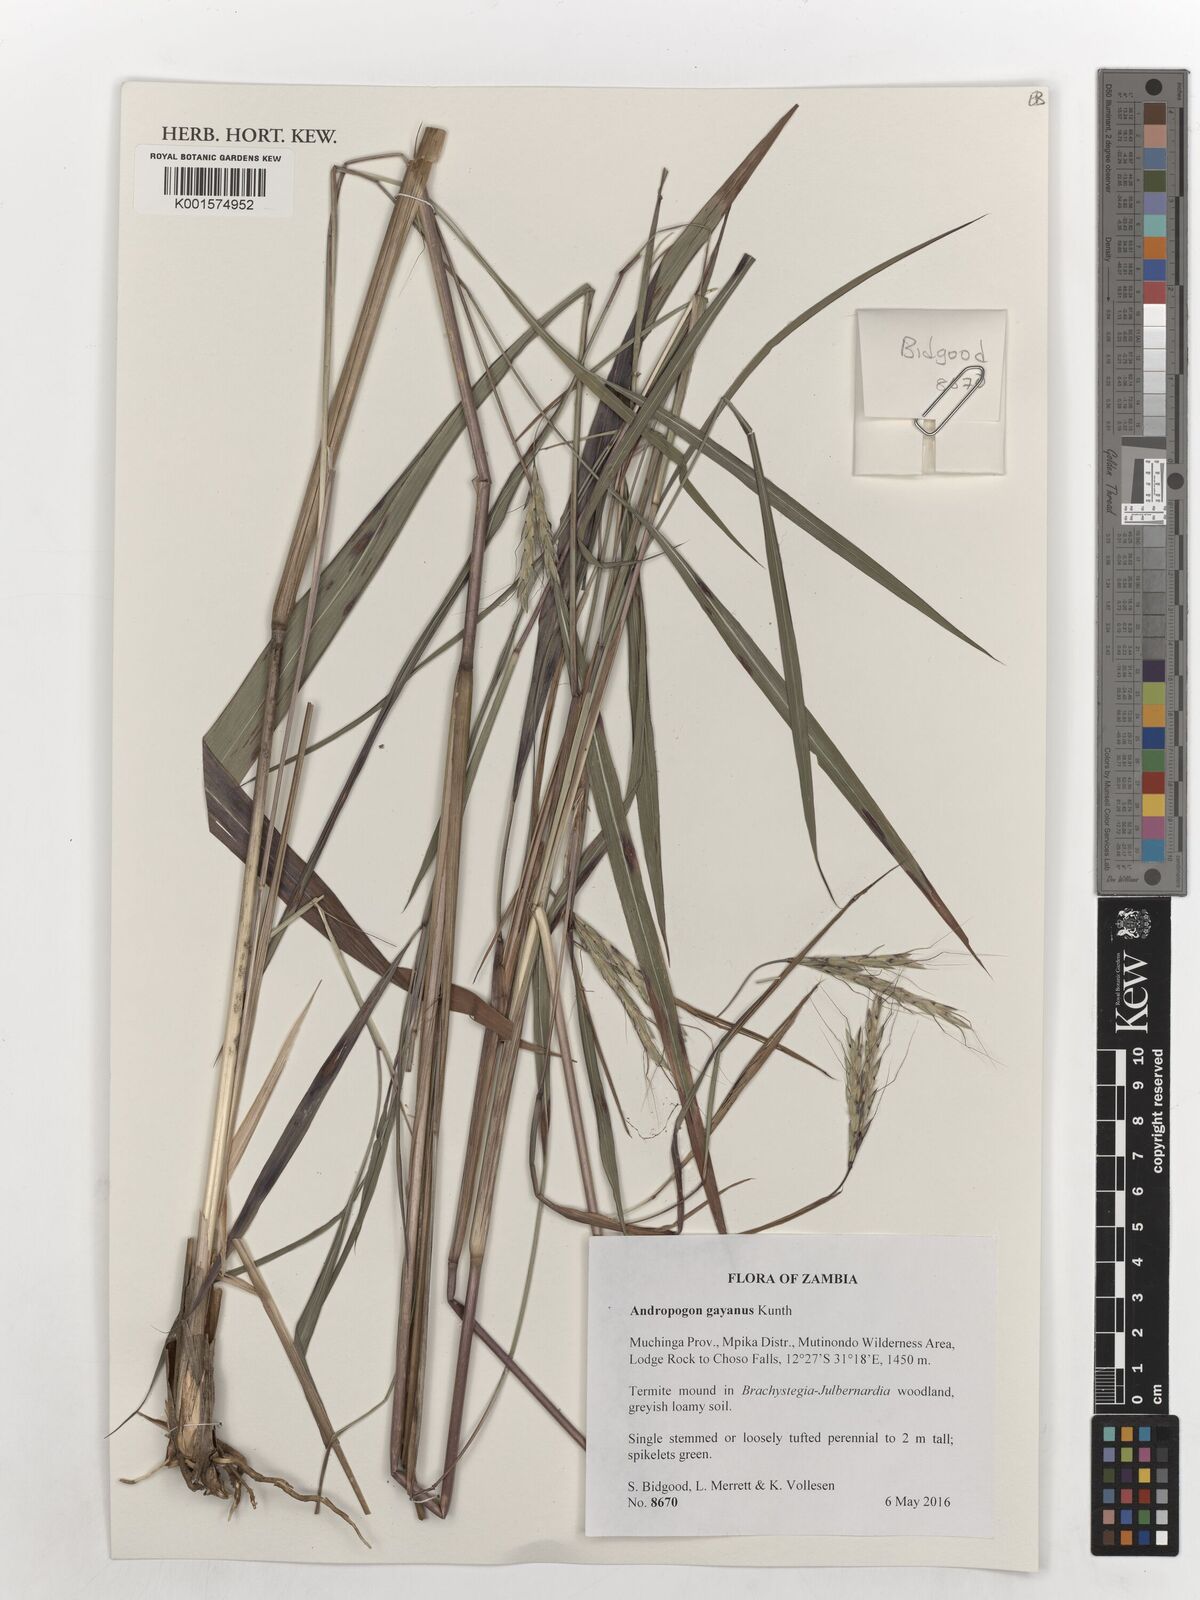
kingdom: Plantae
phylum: Tracheophyta
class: Liliopsida
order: Poales
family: Poaceae
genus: Andropogon
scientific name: Andropogon gayanus
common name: Tambuki grass
